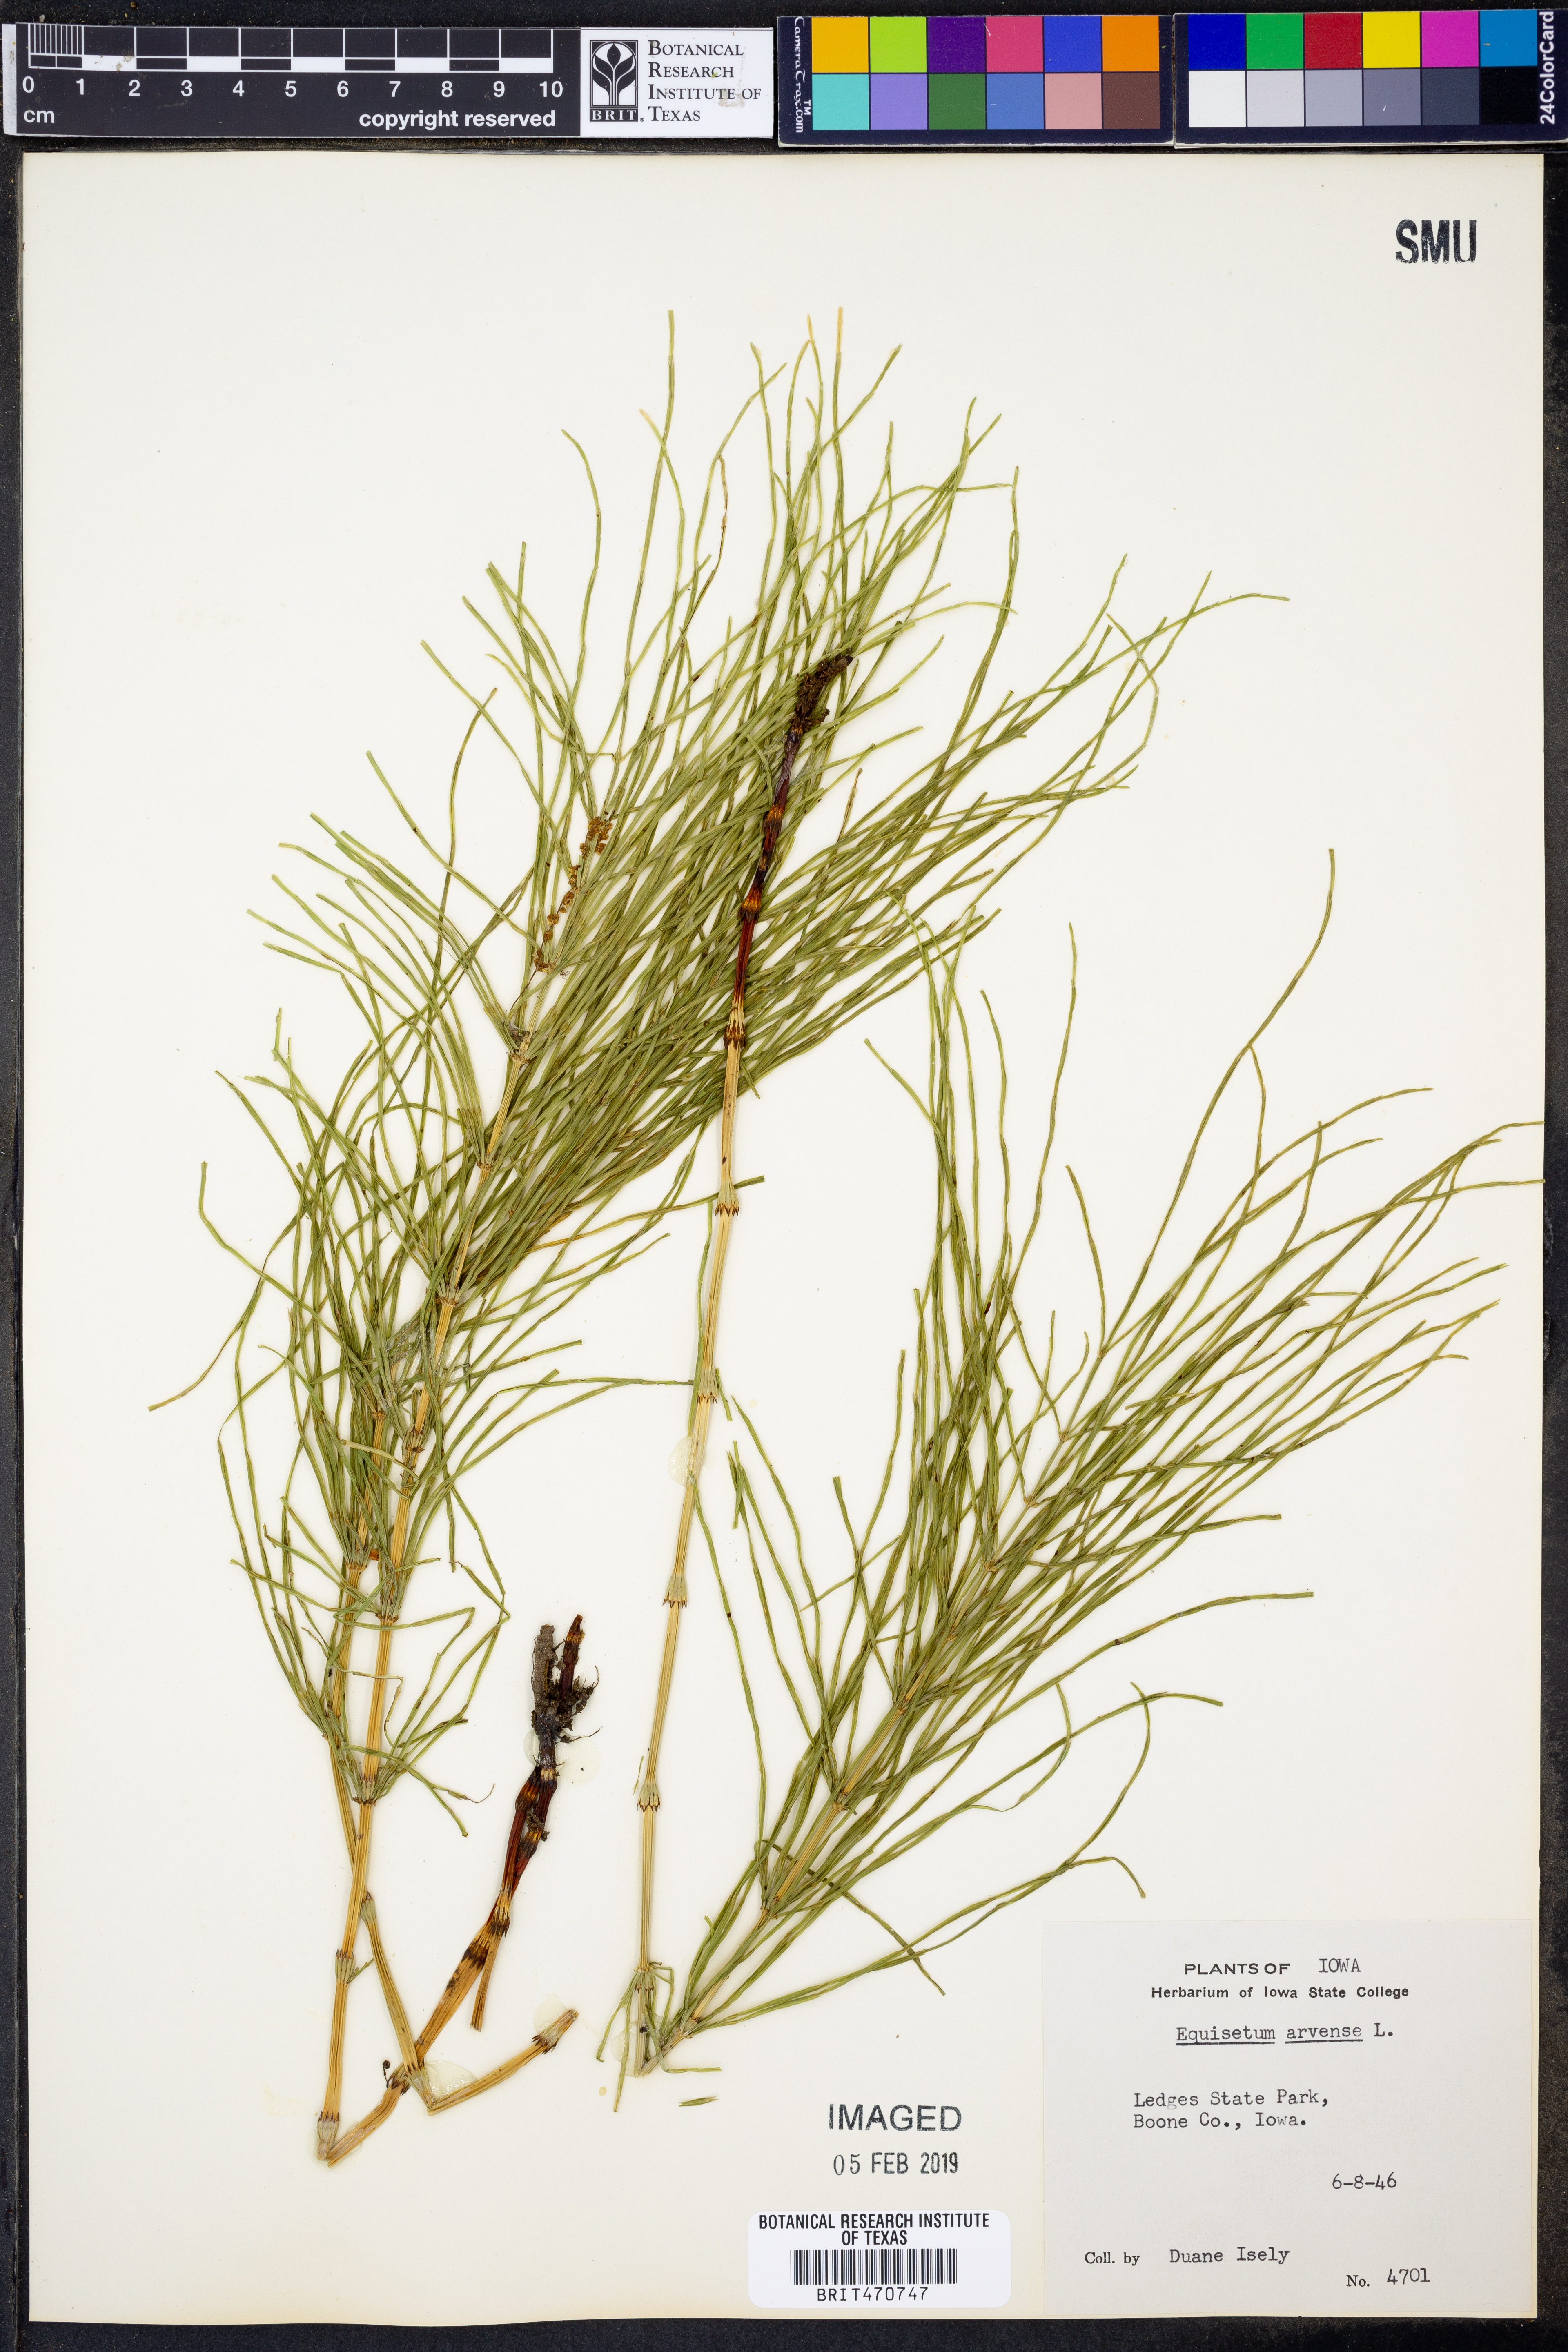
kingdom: Plantae
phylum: Tracheophyta
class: Polypodiopsida
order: Equisetales
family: Equisetaceae
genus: Equisetum
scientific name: Equisetum arvense
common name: Field horsetail
